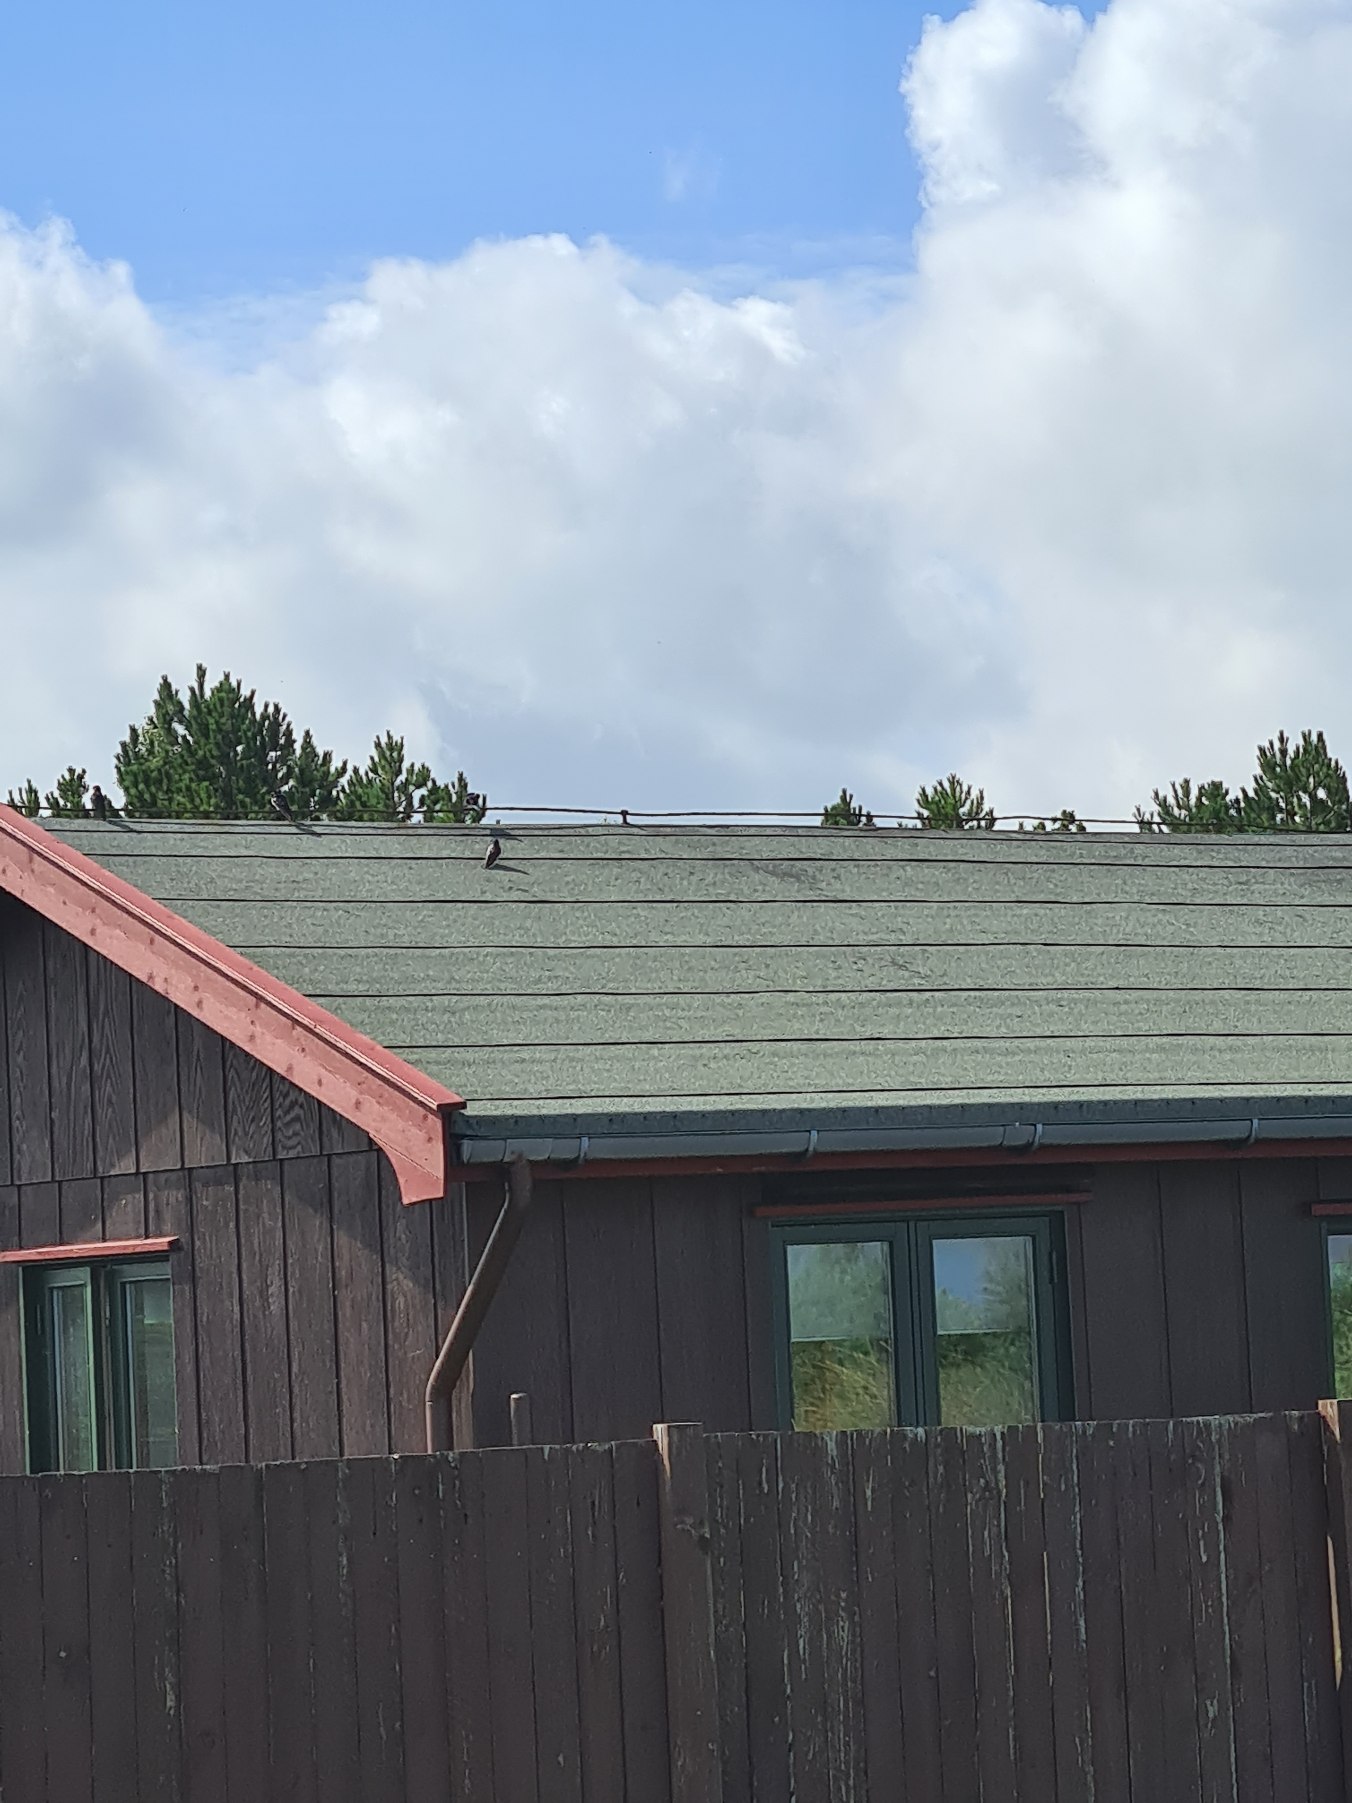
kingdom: Animalia
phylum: Chordata
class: Aves
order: Passeriformes
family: Hirundinidae
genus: Delichon
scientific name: Delichon urbicum
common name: Bysvale
